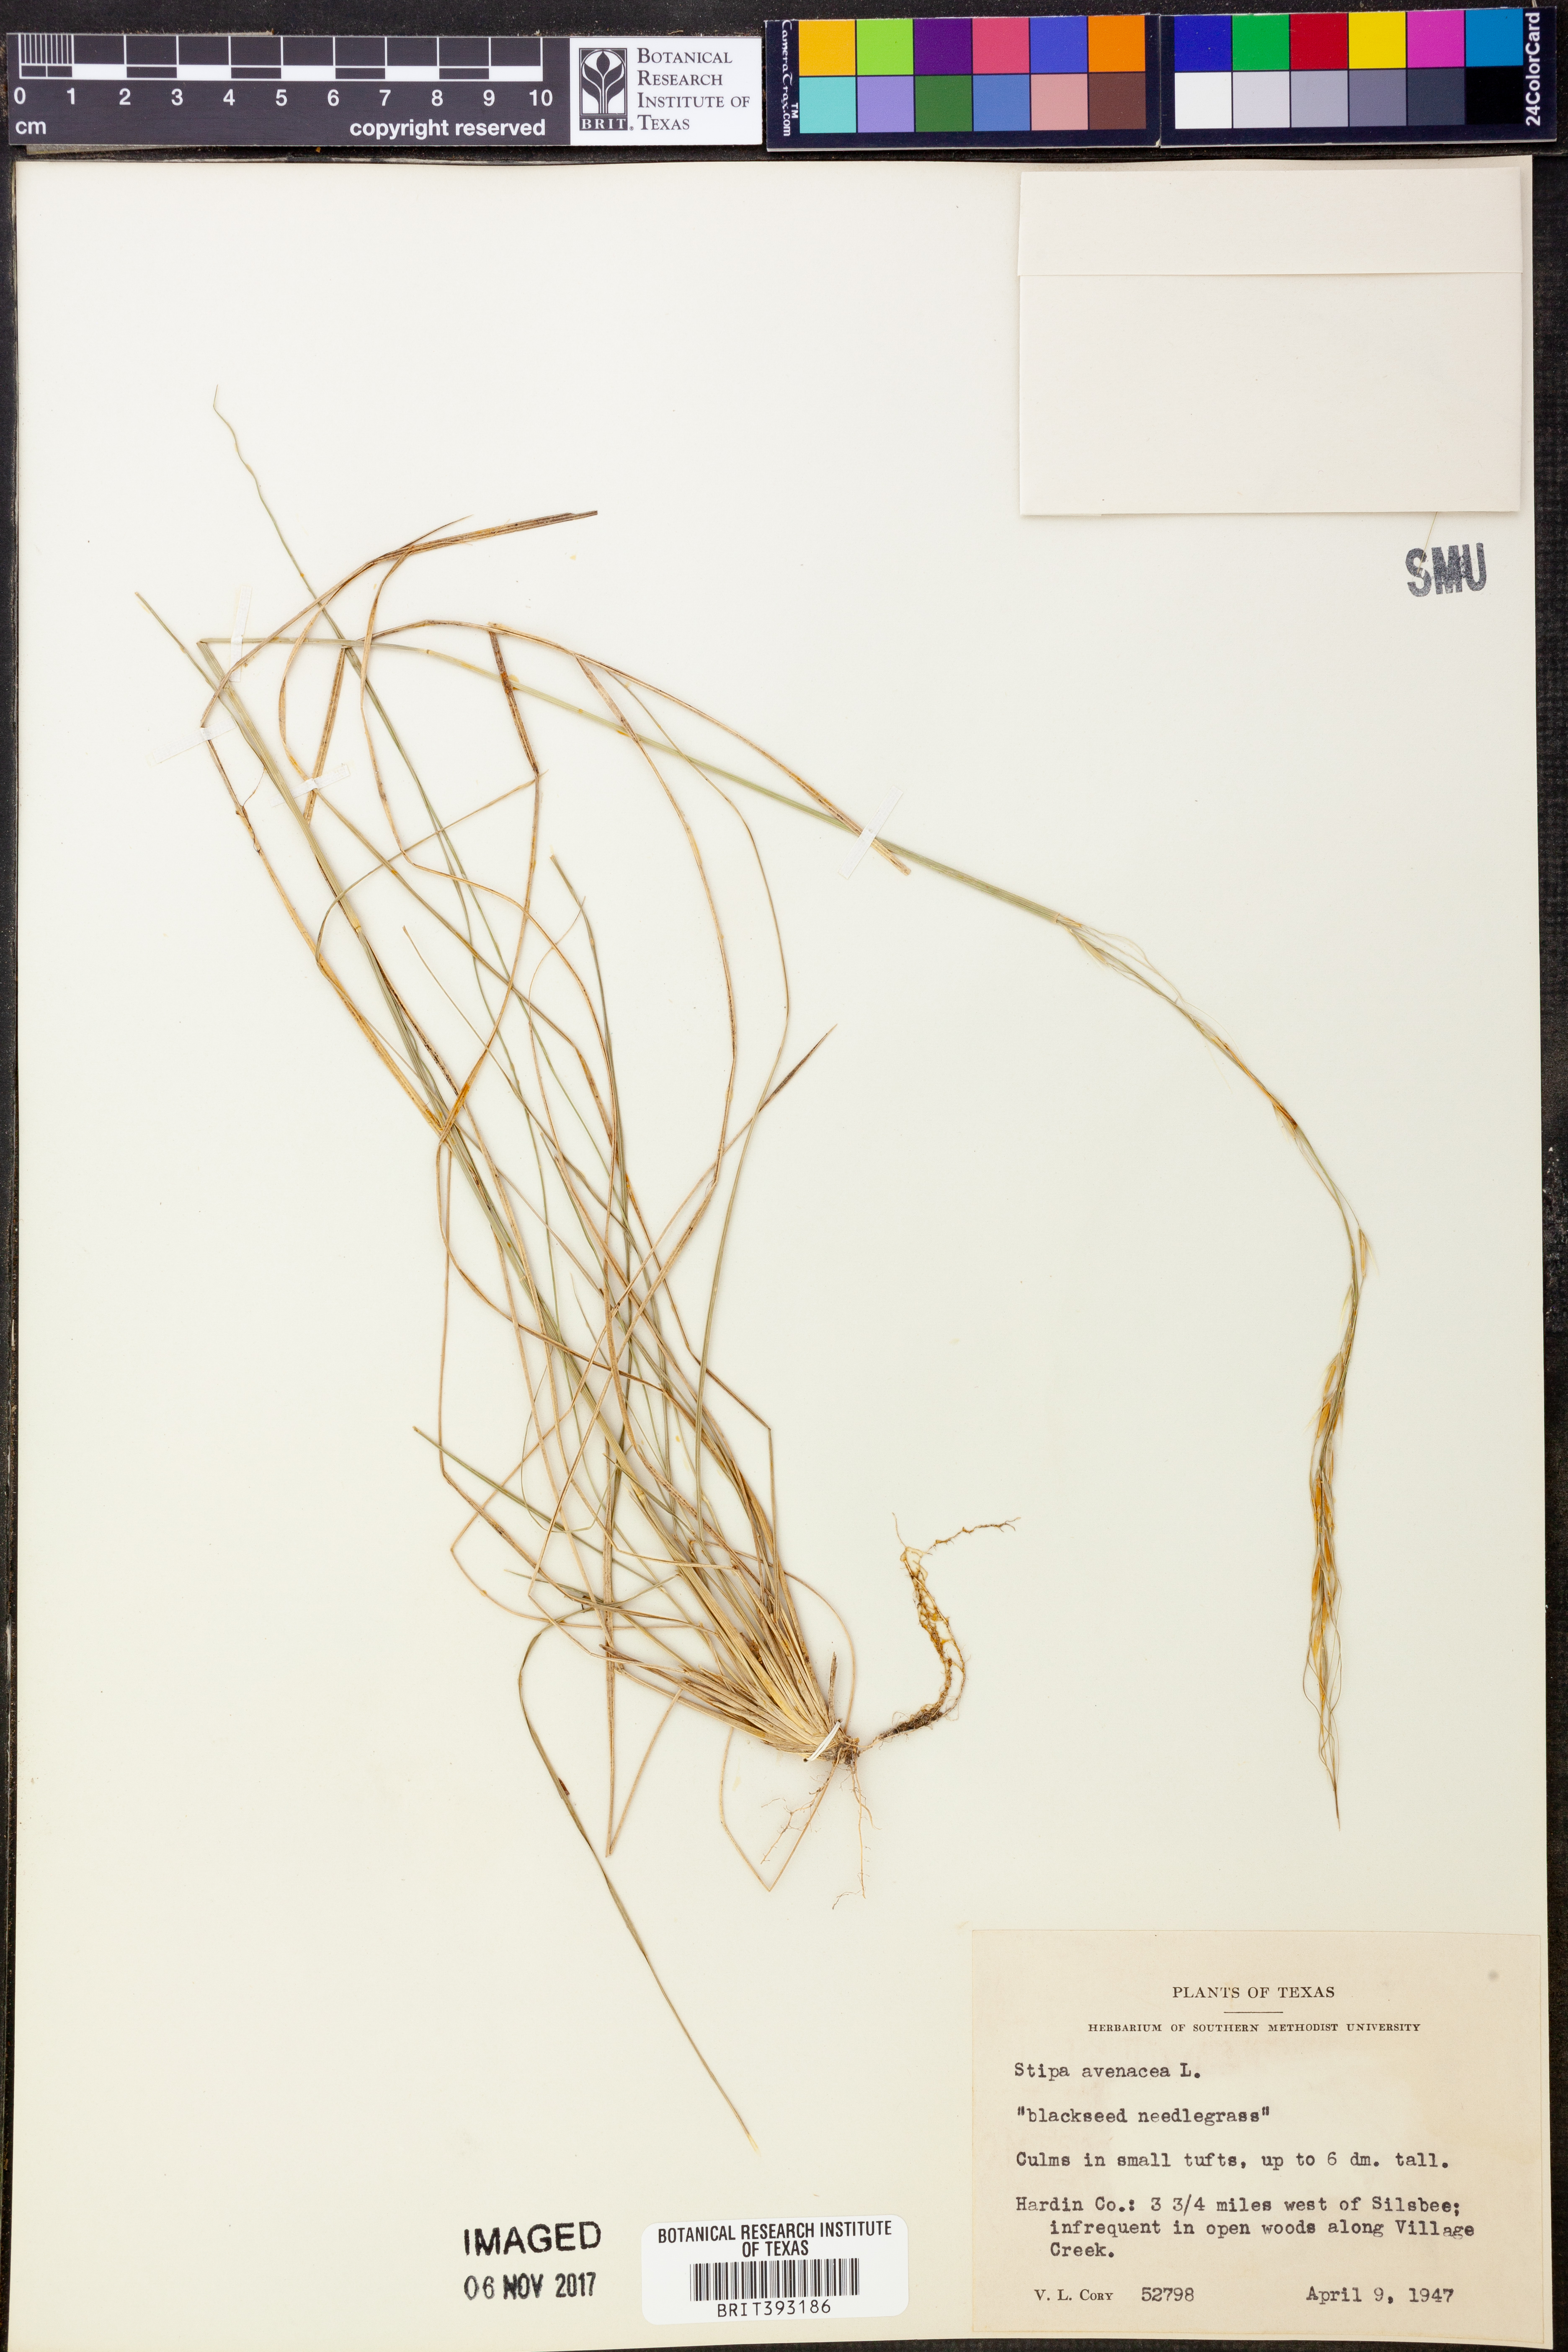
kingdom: Plantae
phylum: Tracheophyta
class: Liliopsida
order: Poales
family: Poaceae
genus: Piptochaetium
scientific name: Piptochaetium avenaceum
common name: Black bunchgrass
